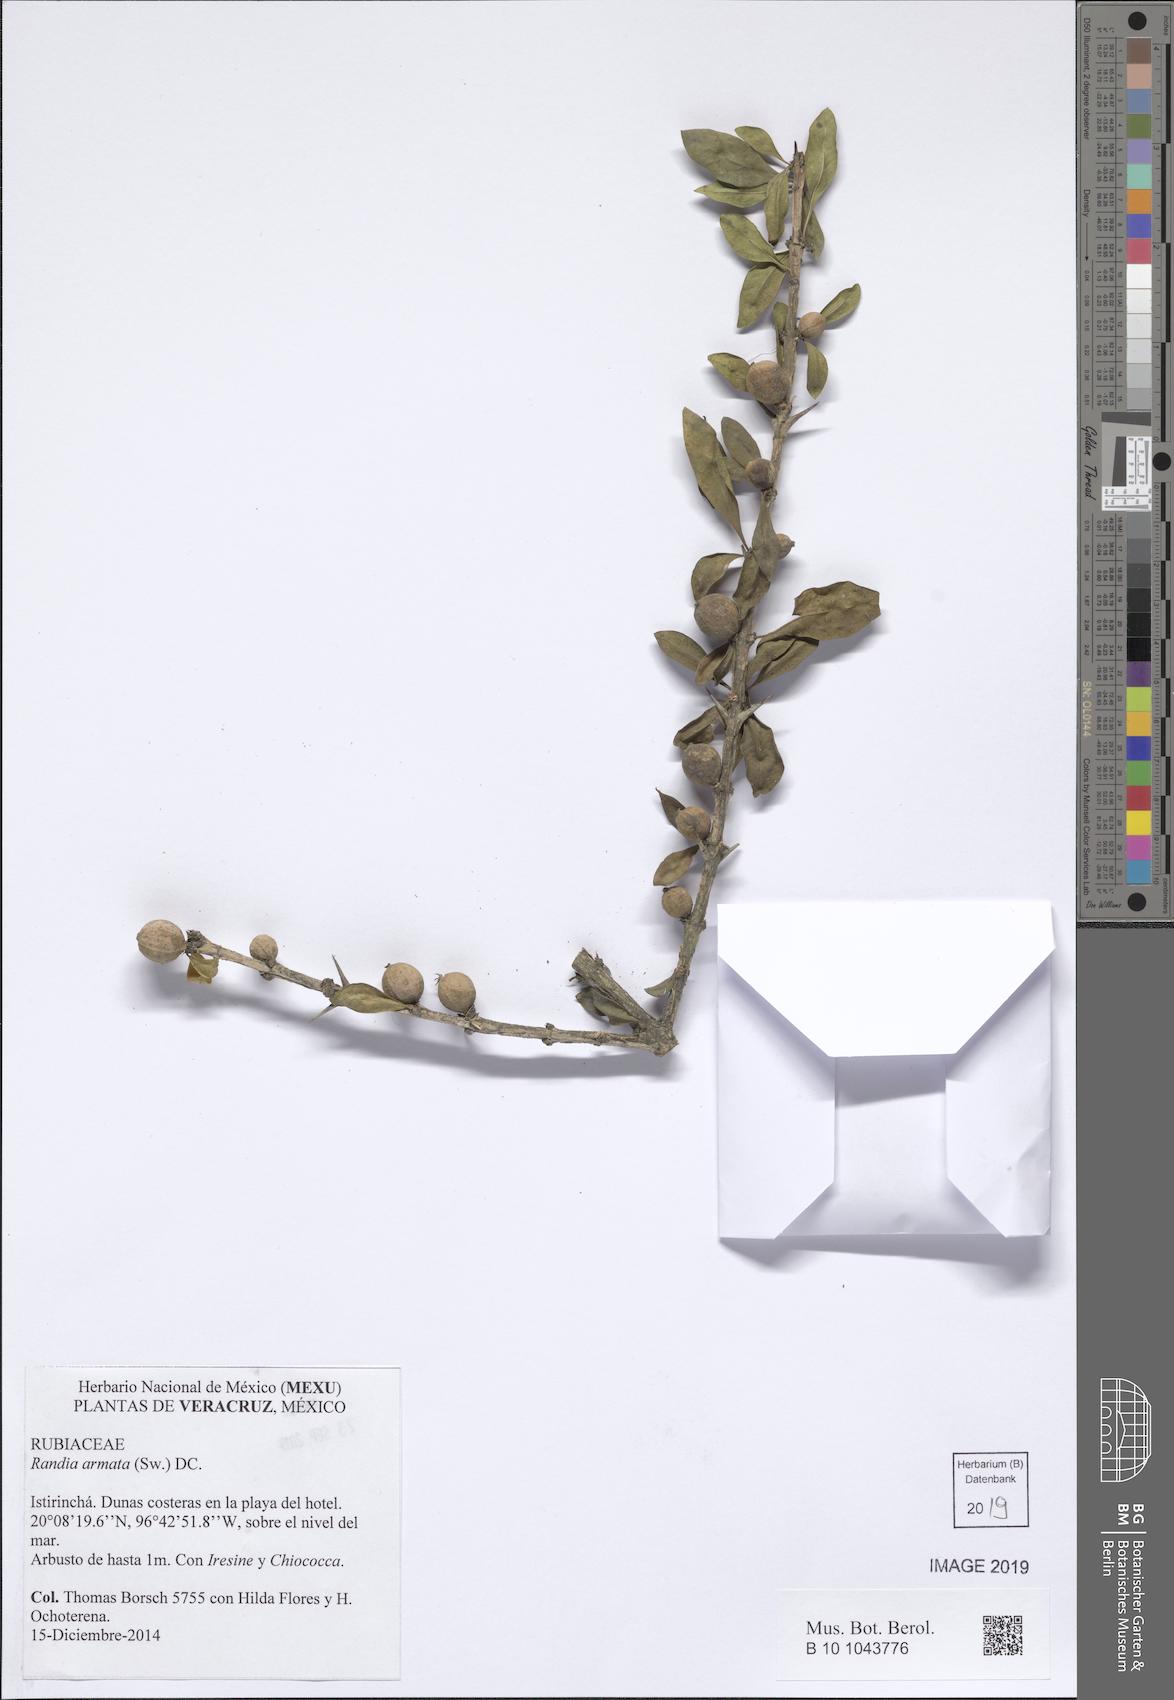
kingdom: Plantae
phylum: Tracheophyta
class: Magnoliopsida
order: Gentianales
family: Rubiaceae
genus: Randia
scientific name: Randia armata
